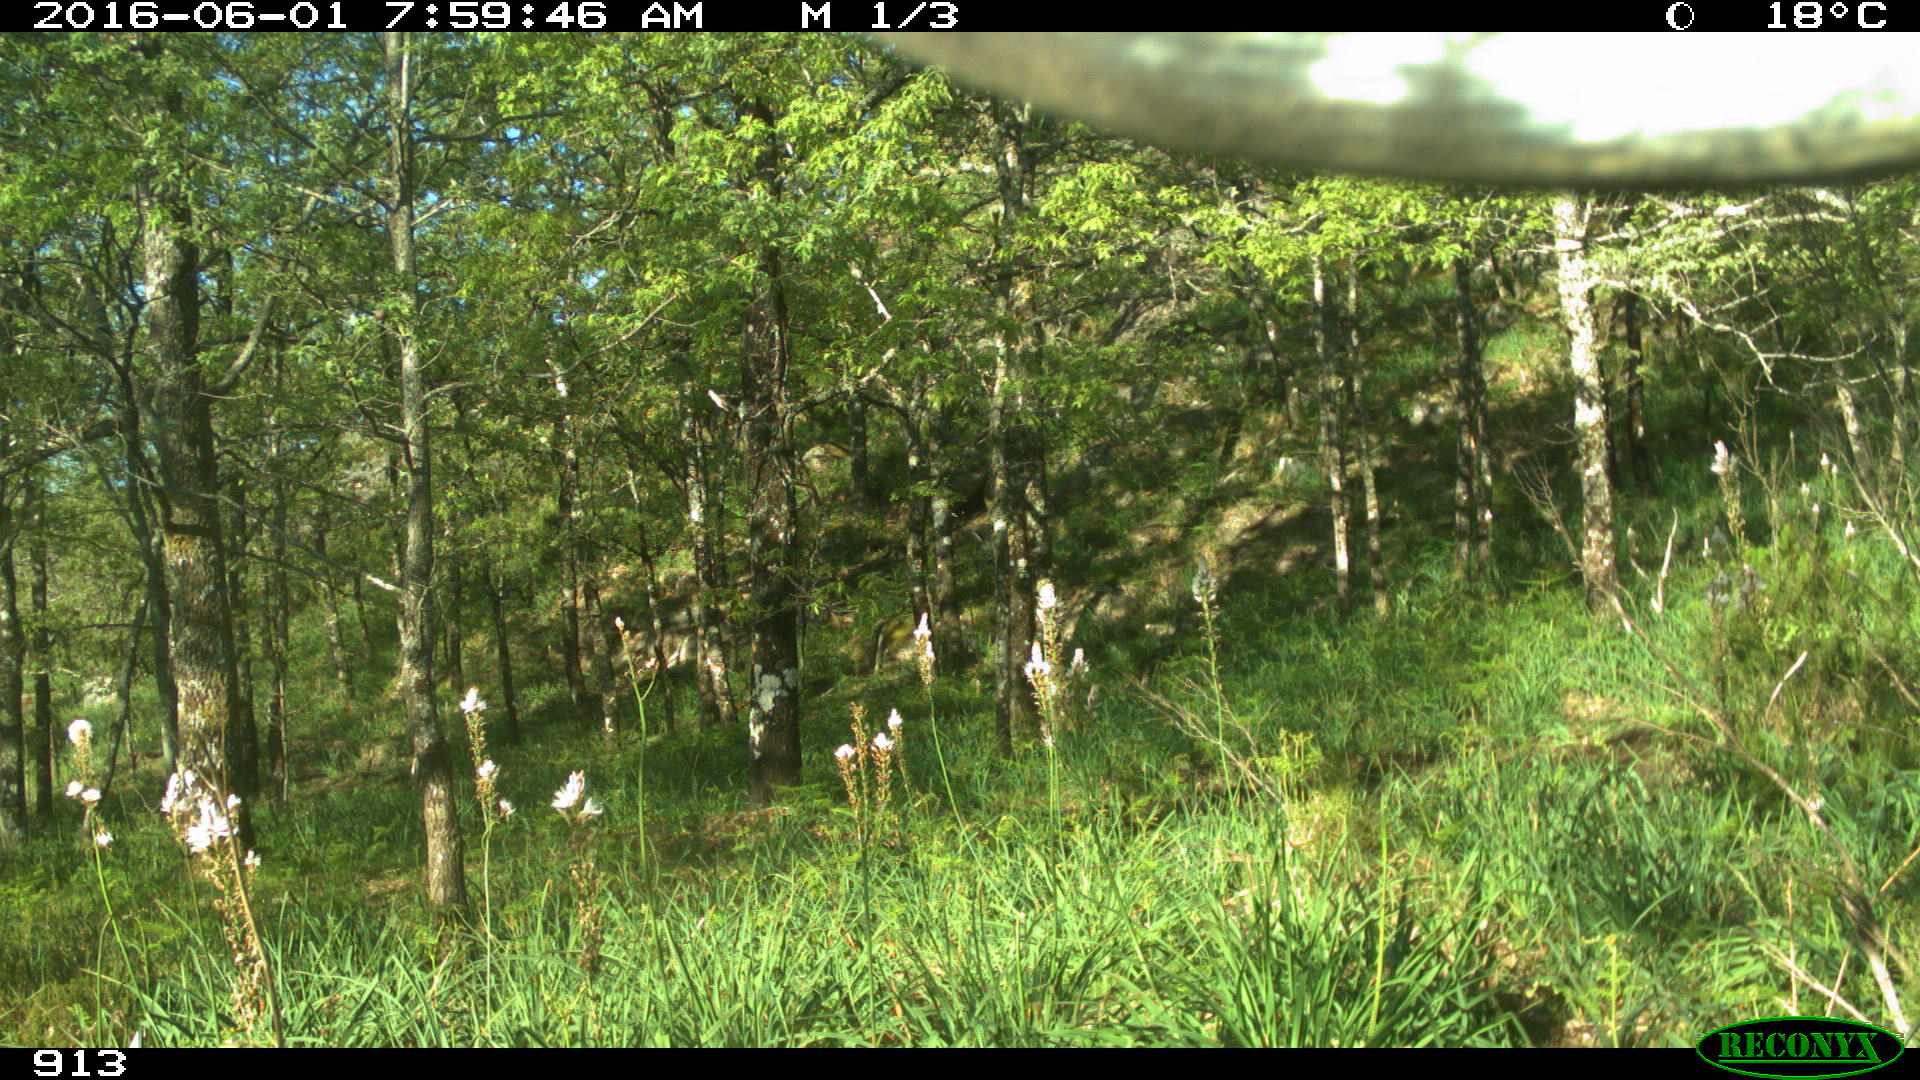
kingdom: Animalia
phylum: Chordata
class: Mammalia
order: Artiodactyla
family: Bovidae
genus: Bos
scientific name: Bos taurus
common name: Domesticated cattle
